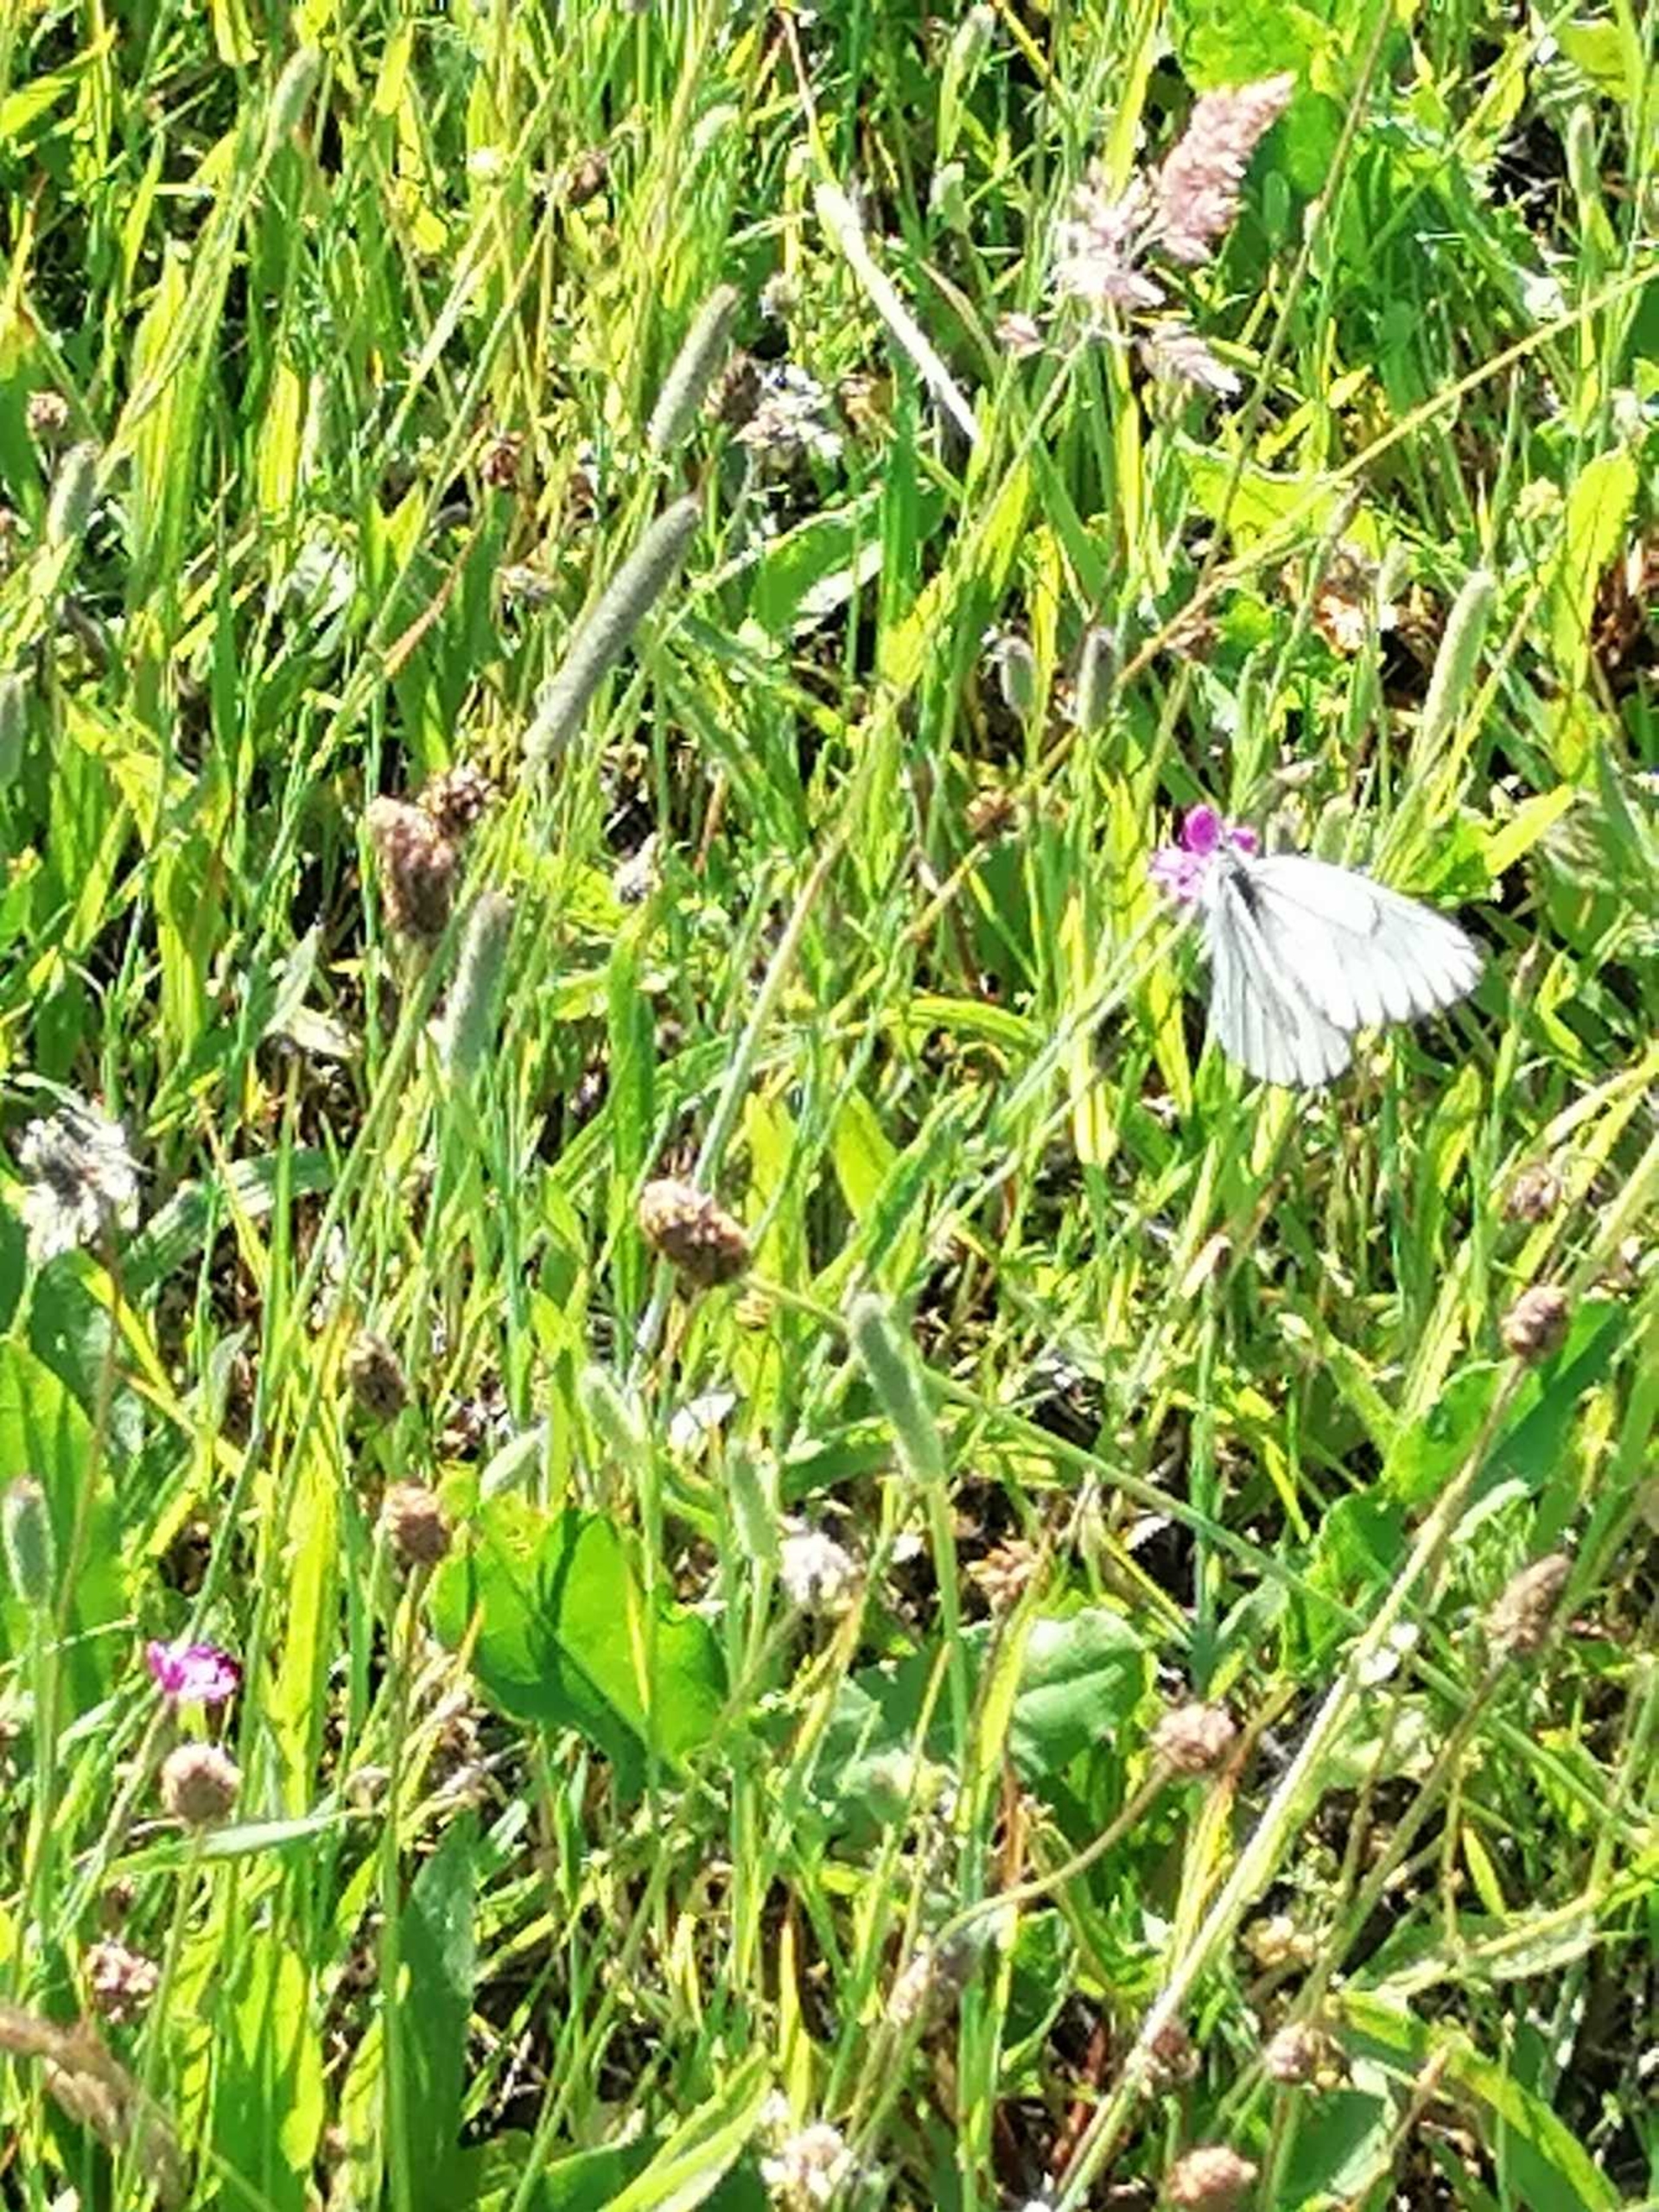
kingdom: Animalia
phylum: Arthropoda
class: Insecta
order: Lepidoptera
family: Pieridae
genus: Aporia
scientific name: Aporia crataegi
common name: Sortåret hvidvinge
